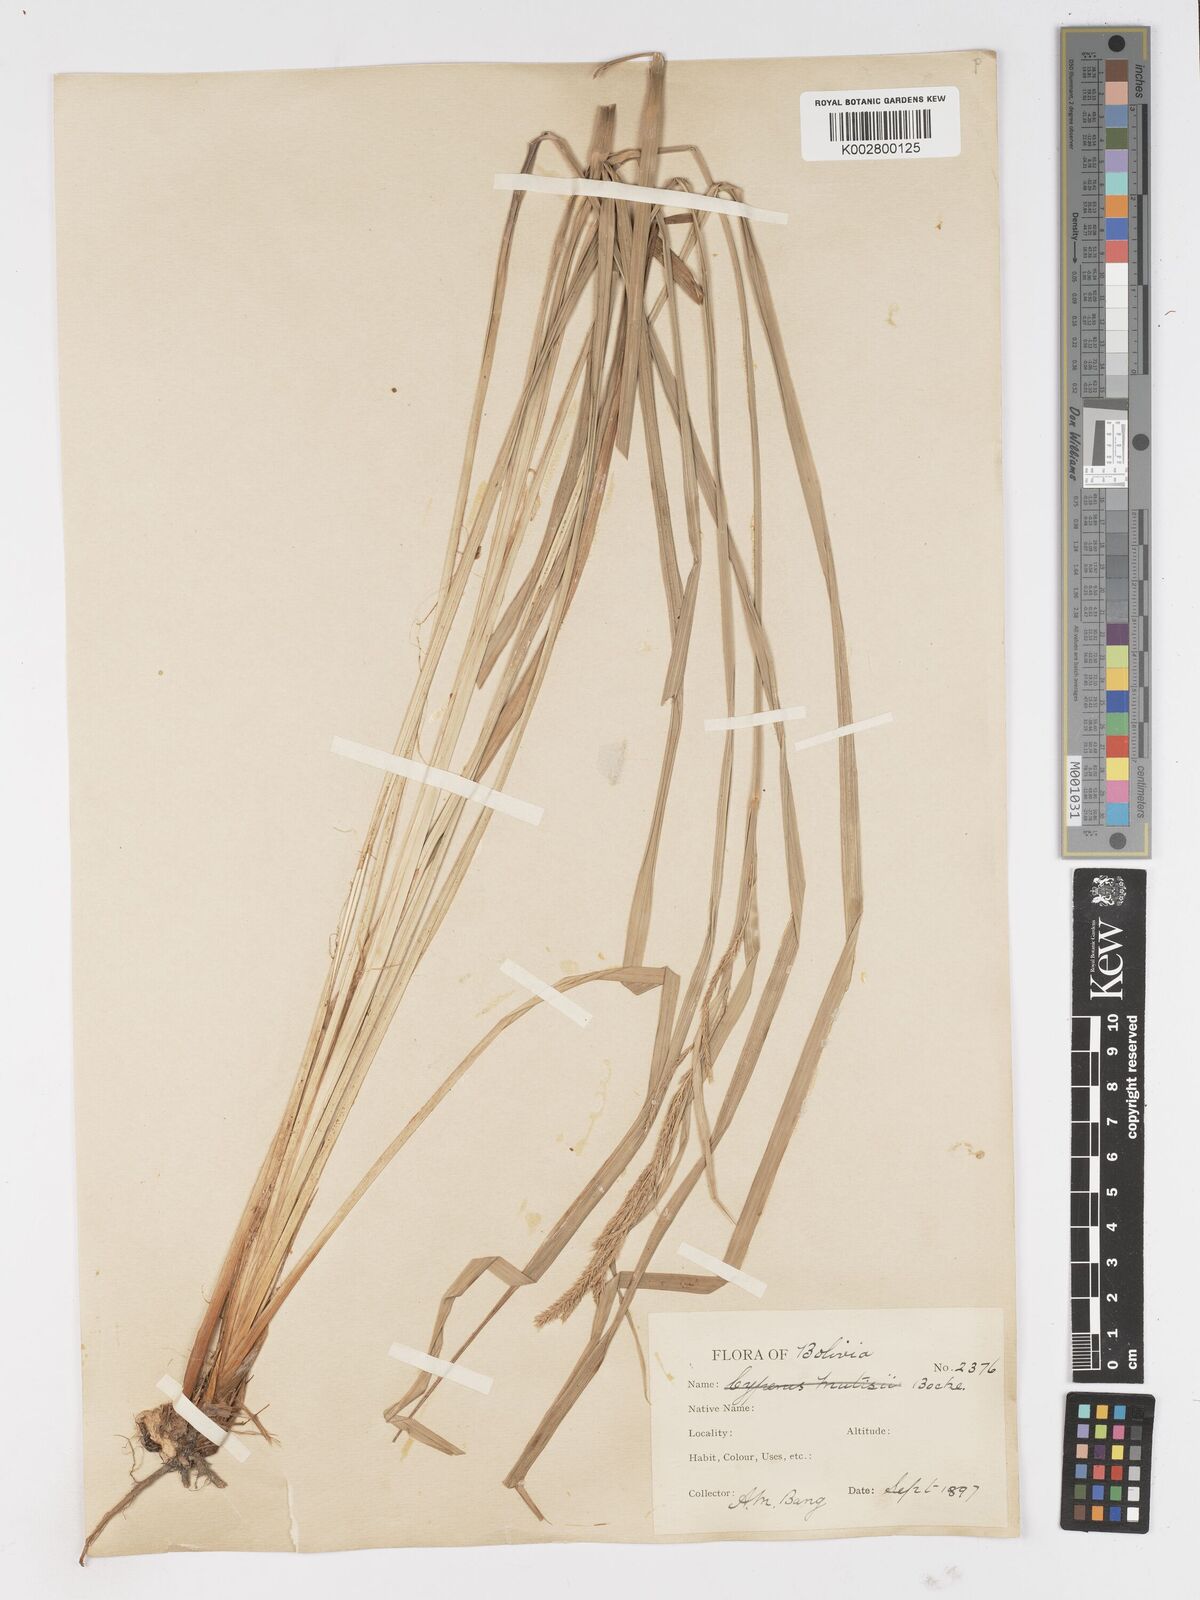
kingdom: Plantae
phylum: Tracheophyta
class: Liliopsida
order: Poales
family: Cyperaceae
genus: Carex
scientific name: Carex fecunda
